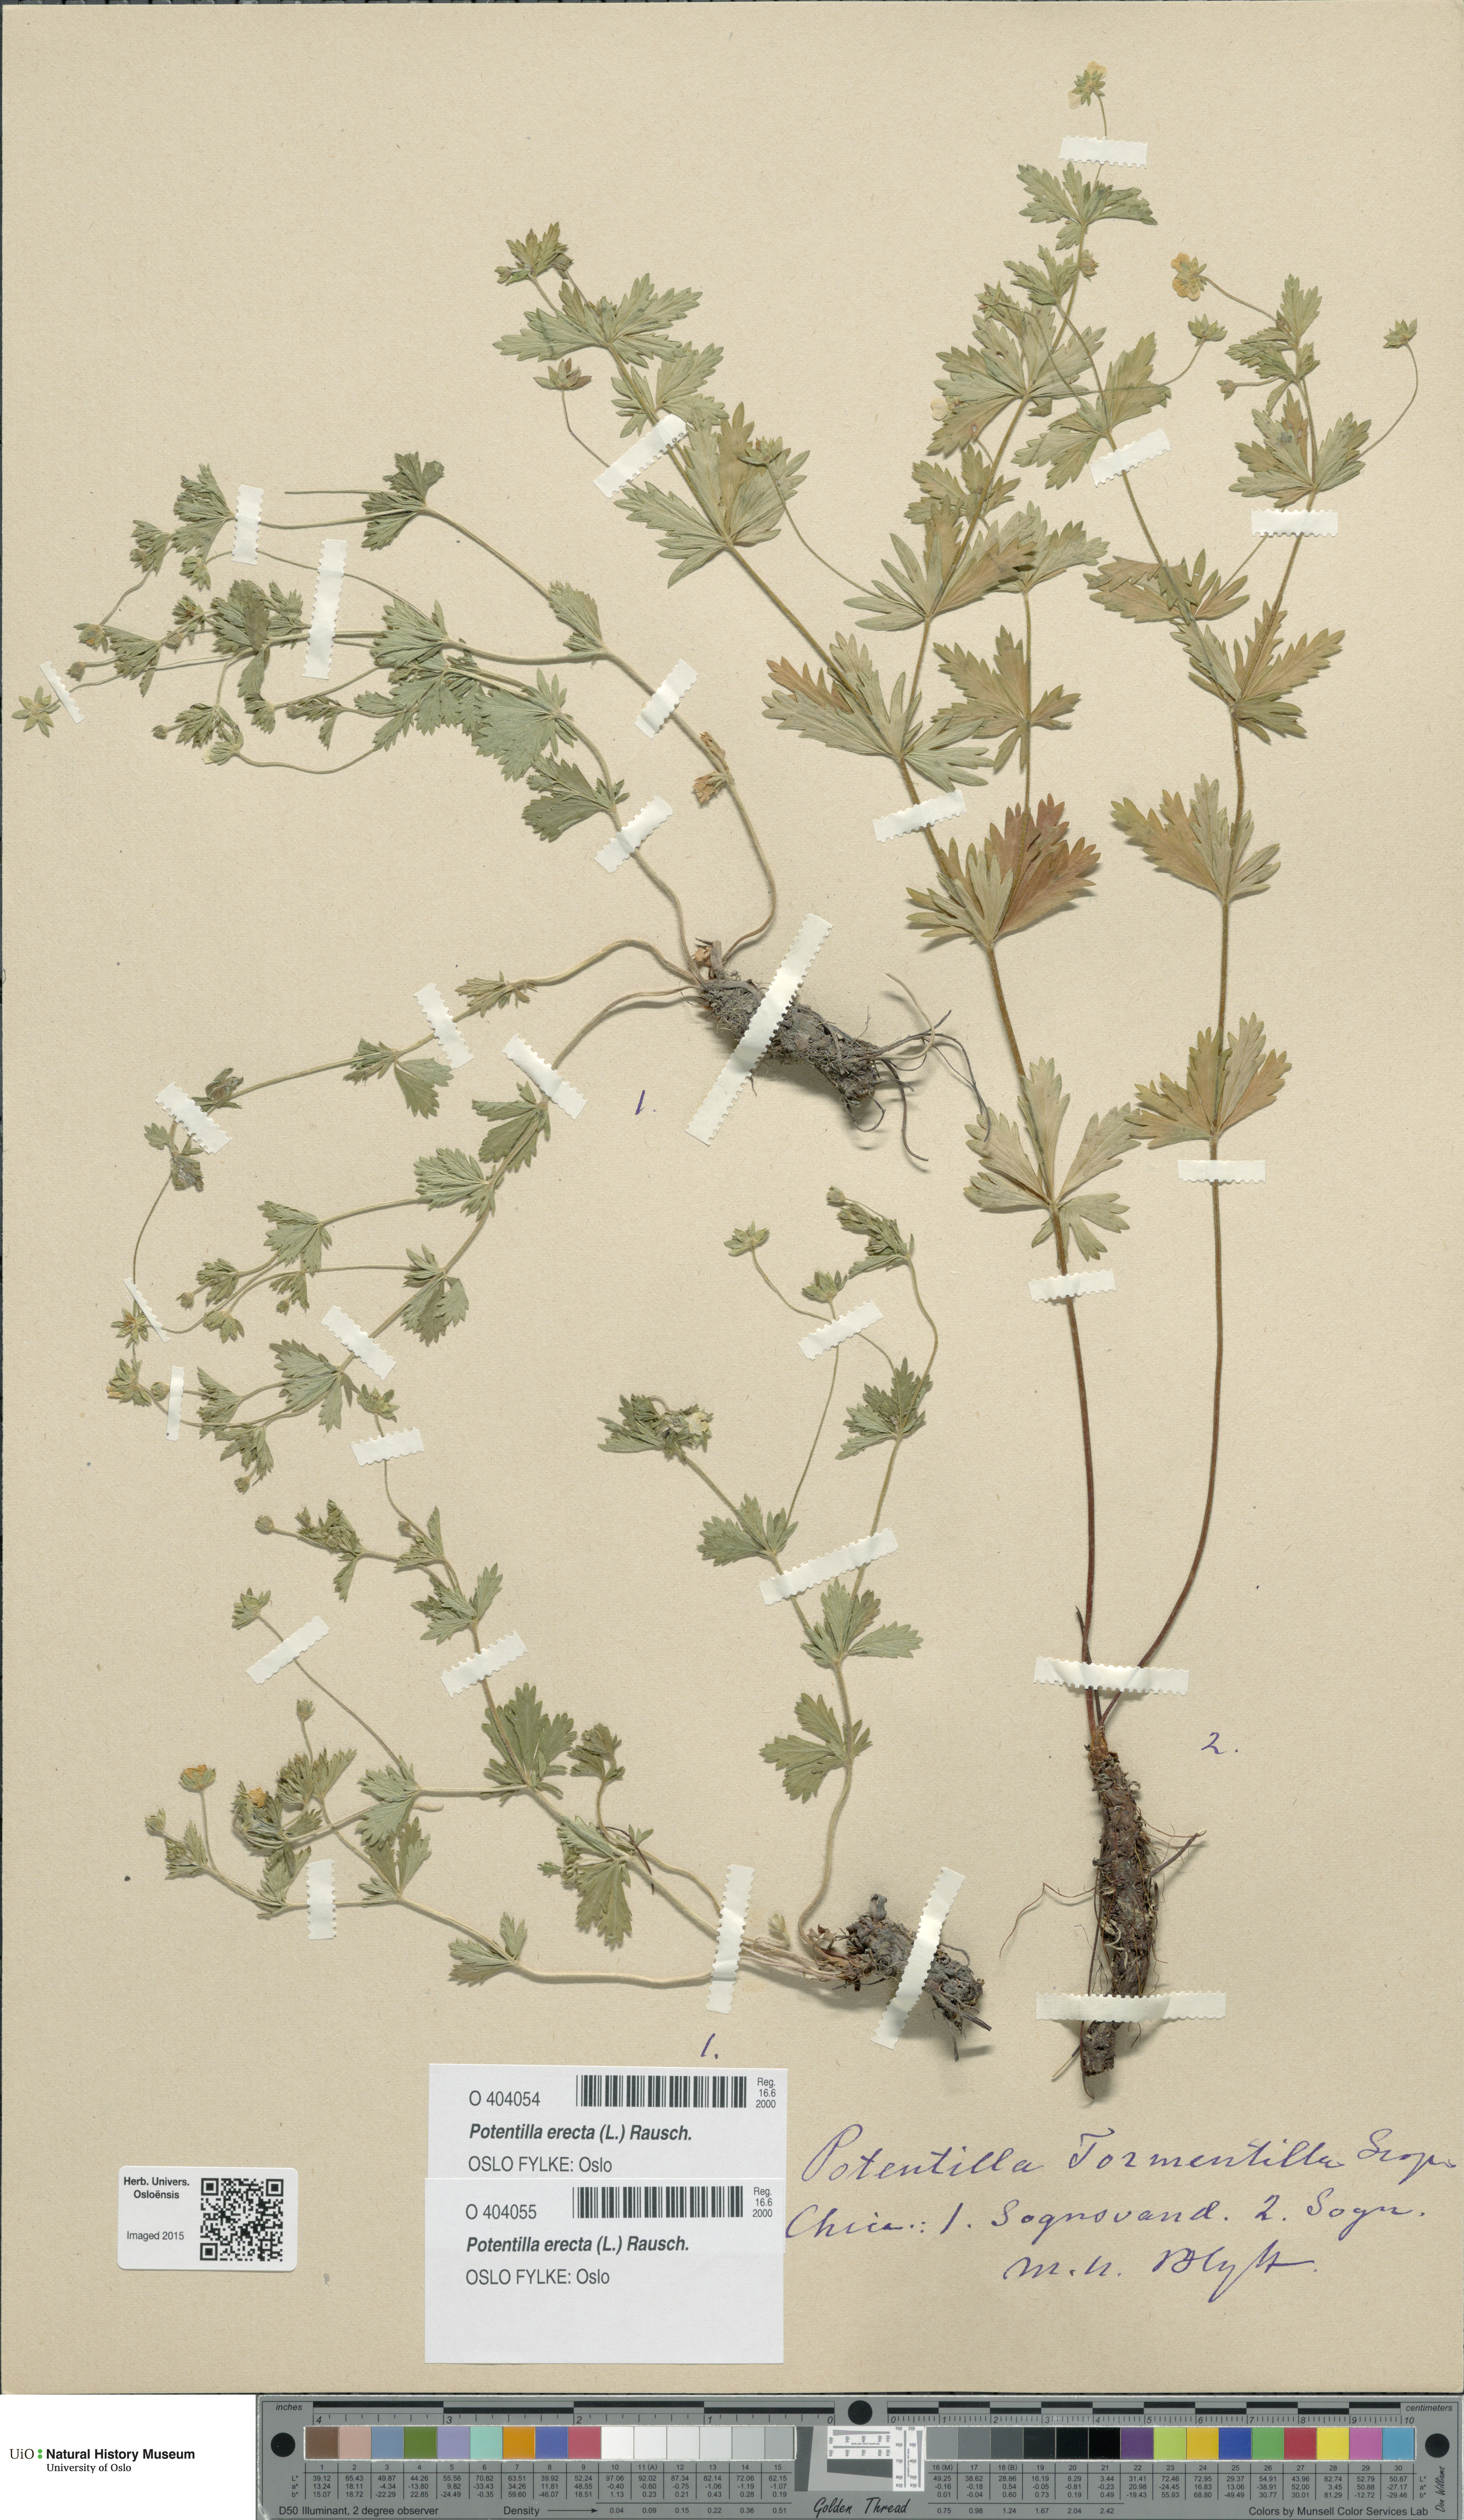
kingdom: Plantae
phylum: Tracheophyta
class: Magnoliopsida
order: Rosales
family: Rosaceae
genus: Potentilla
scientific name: Potentilla erecta
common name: Tormentil
